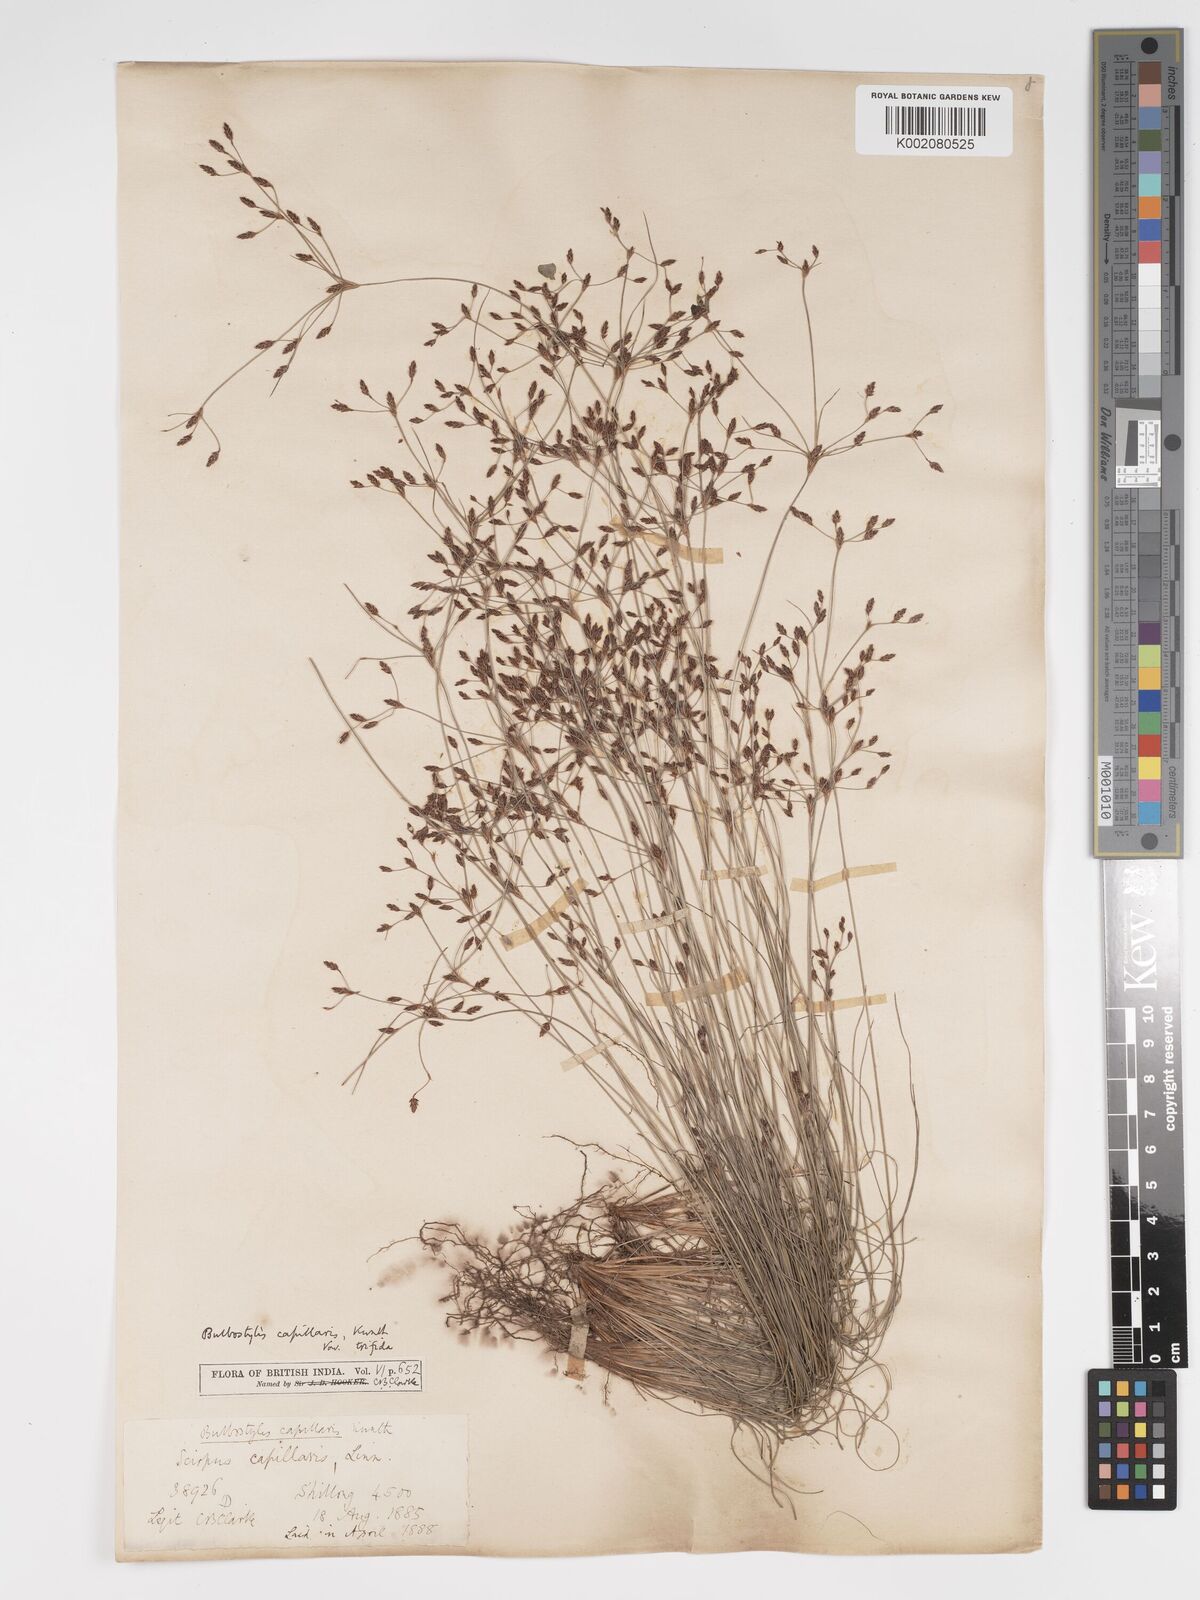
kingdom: Plantae
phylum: Tracheophyta
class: Liliopsida
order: Poales
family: Cyperaceae
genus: Bulbostylis
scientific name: Bulbostylis capillaris
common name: Densetuft hairsedge
